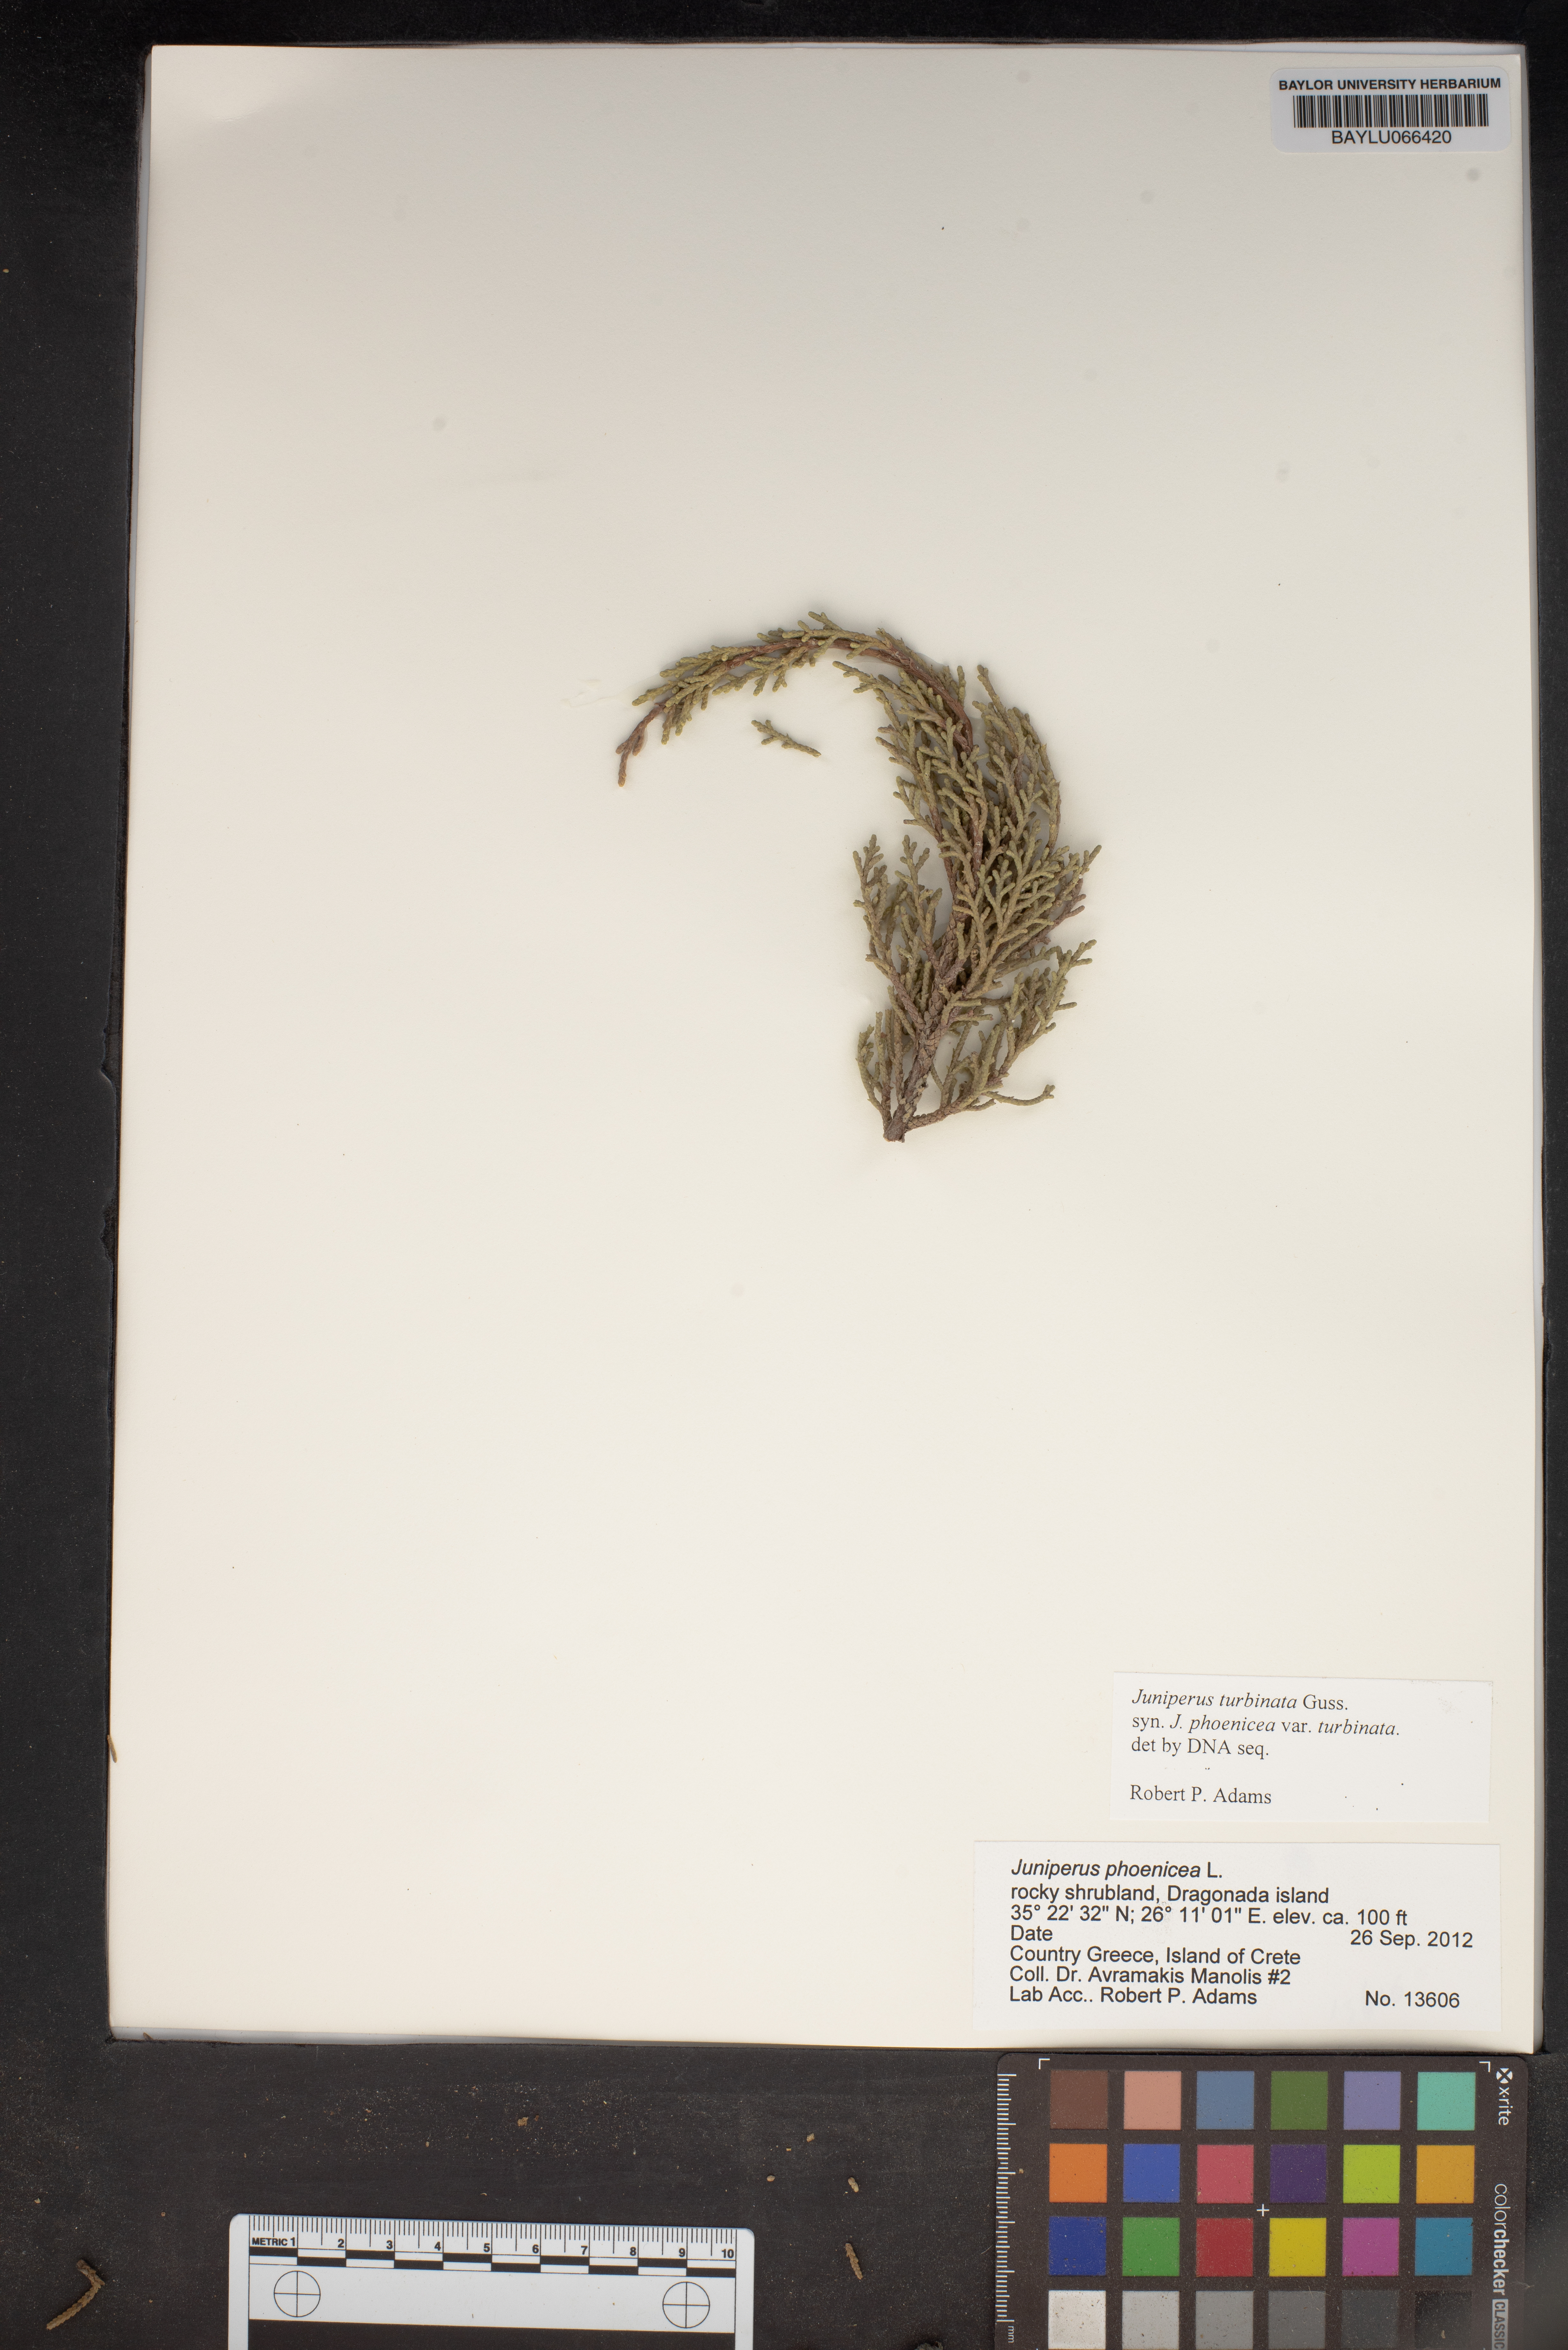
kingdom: Plantae
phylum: Tracheophyta
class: Pinopsida
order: Pinales
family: Cupressaceae
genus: Juniperus
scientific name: Juniperus phoenicea
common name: Phoenician juniper
